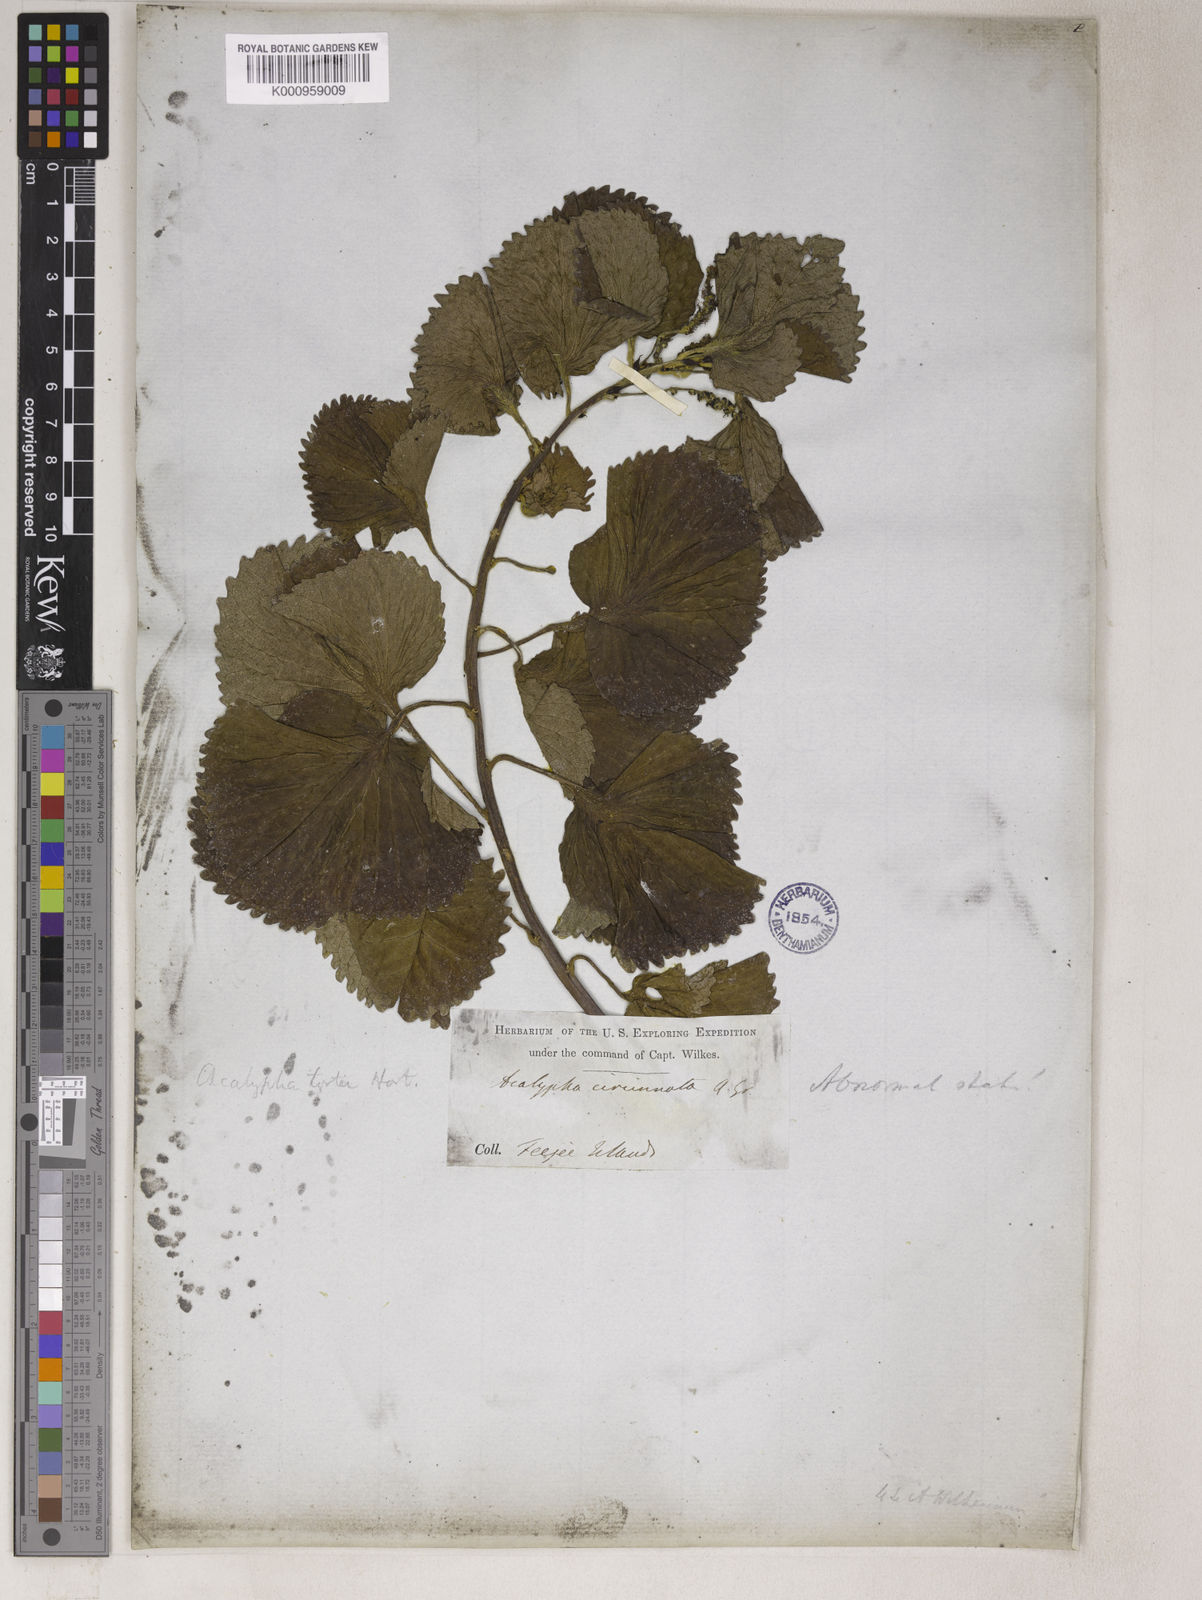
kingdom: Plantae
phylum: Tracheophyta
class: Magnoliopsida
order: Malpighiales
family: Euphorbiaceae
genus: Acalypha
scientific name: Acalypha
